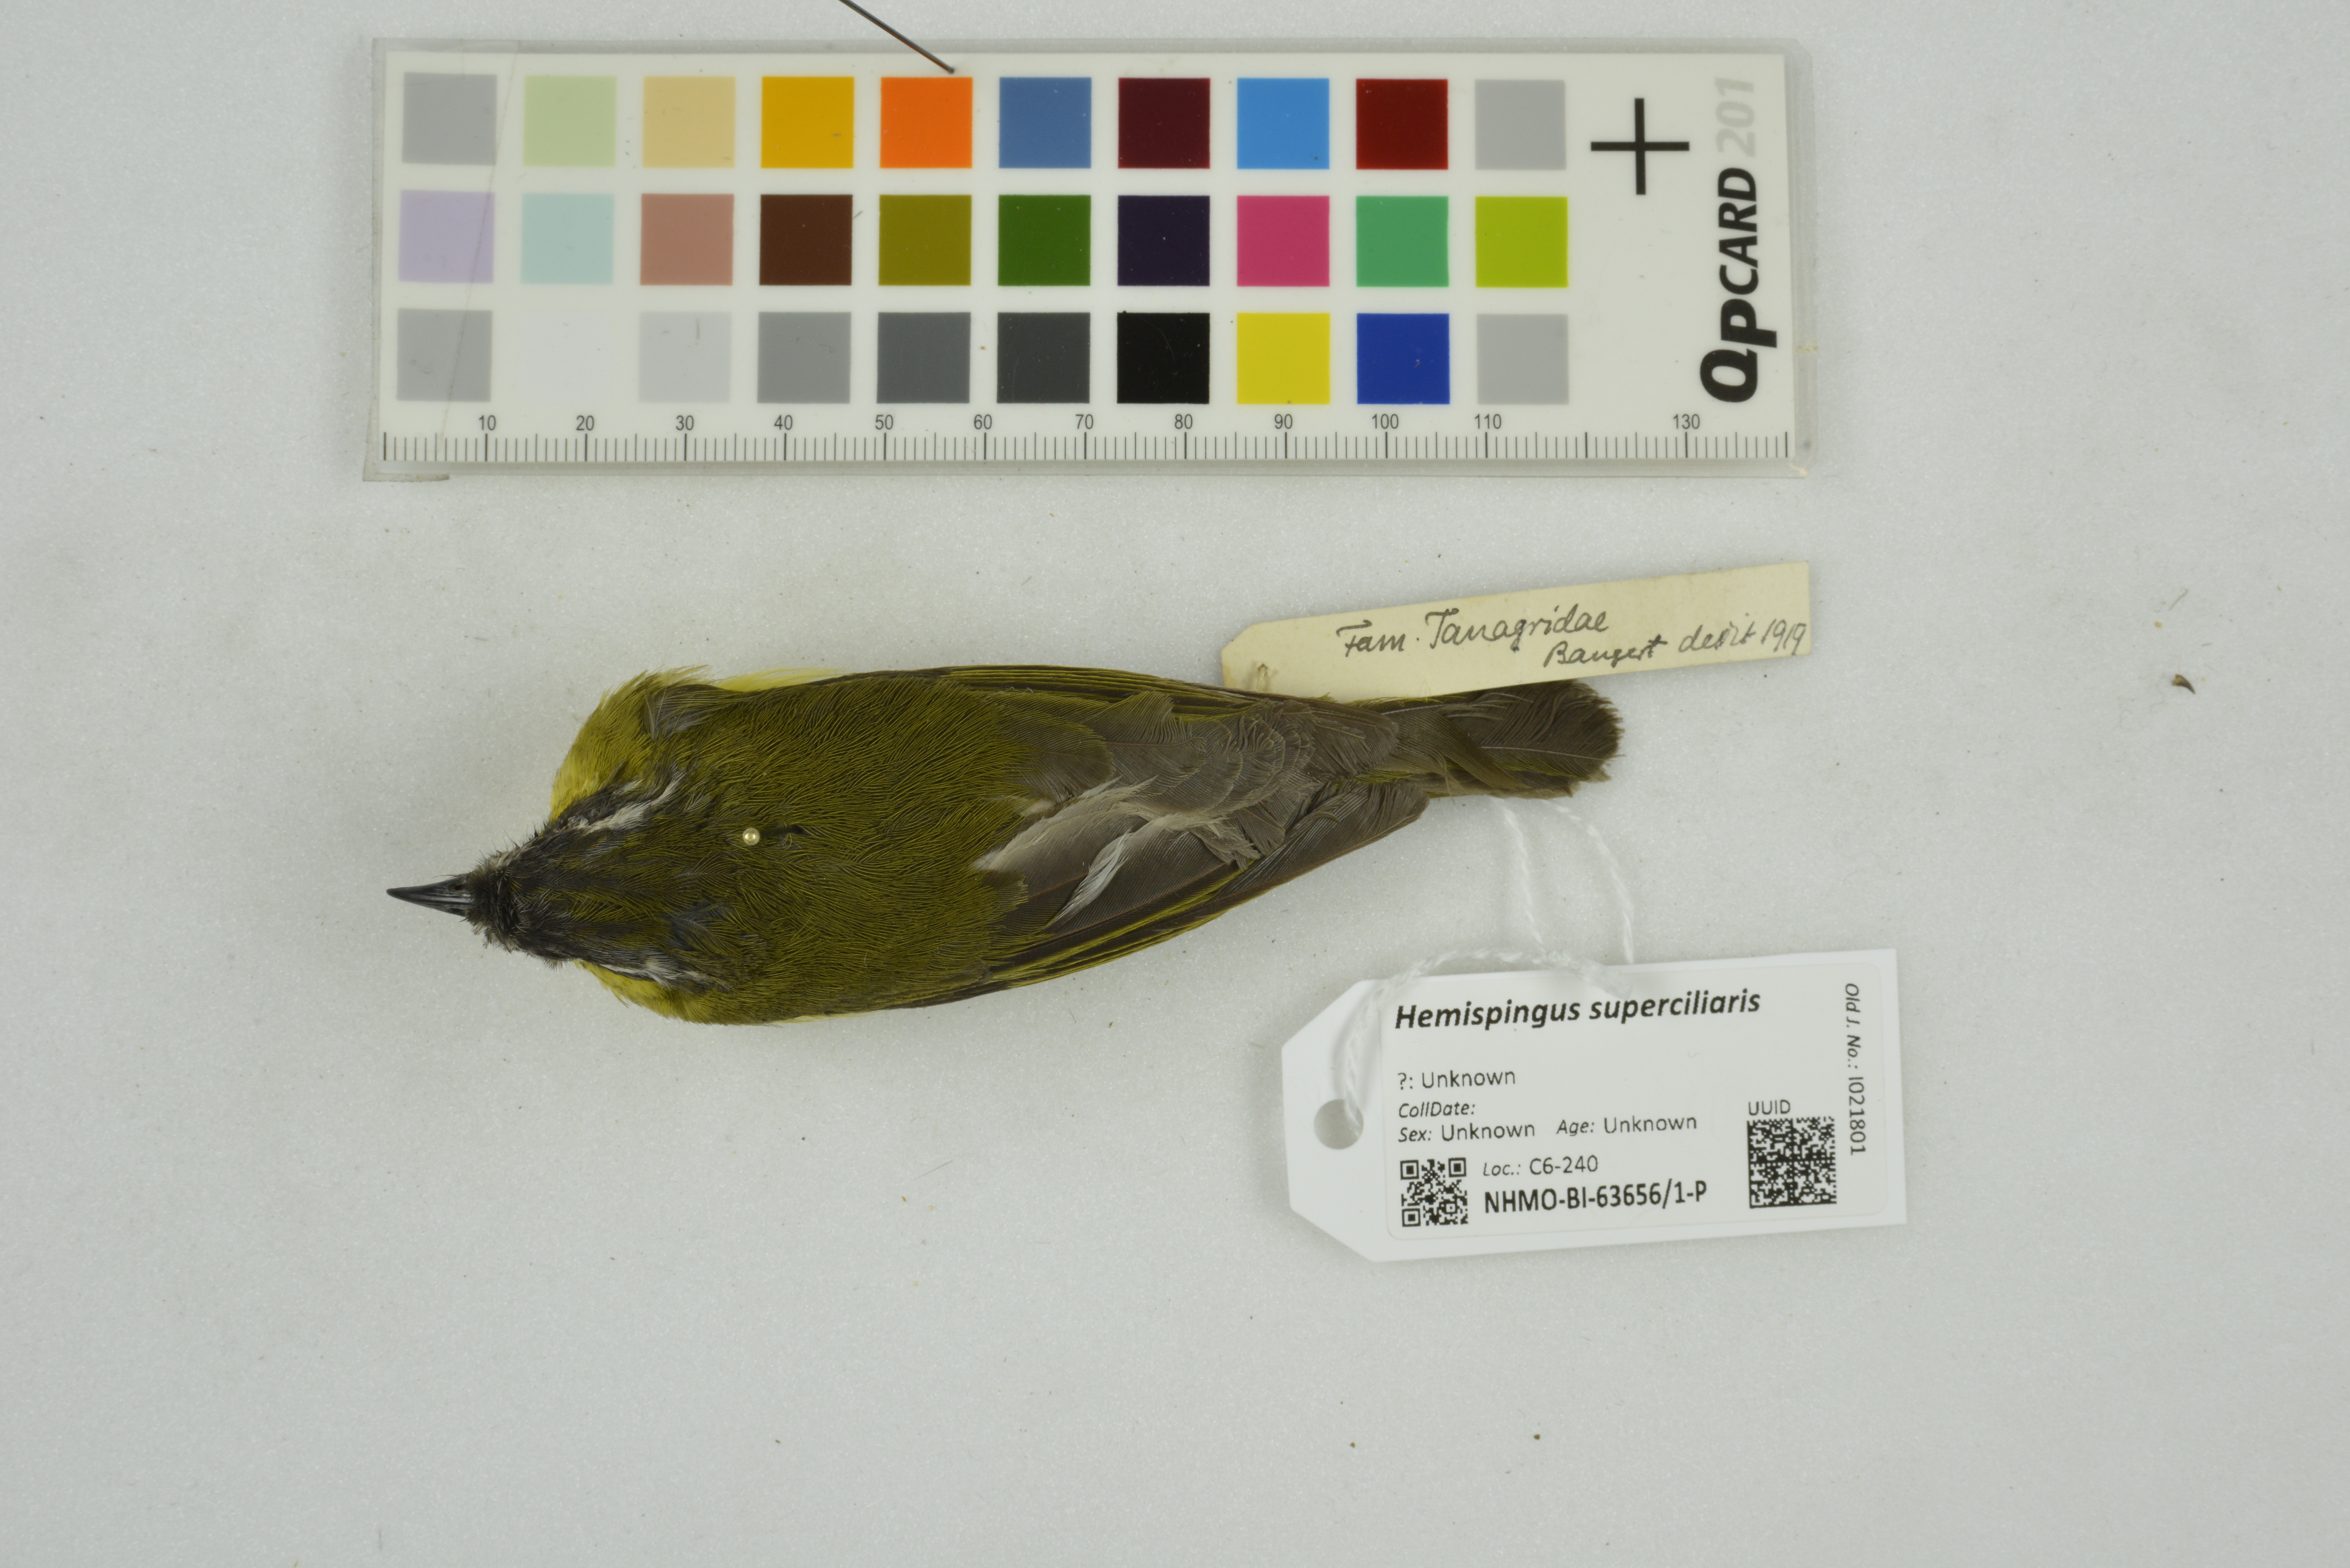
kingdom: Animalia
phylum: Chordata
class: Aves
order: Passeriformes
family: Thraupidae
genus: Thlypopsis
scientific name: Thlypopsis superciliaris
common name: Superciliaried hemispingus
